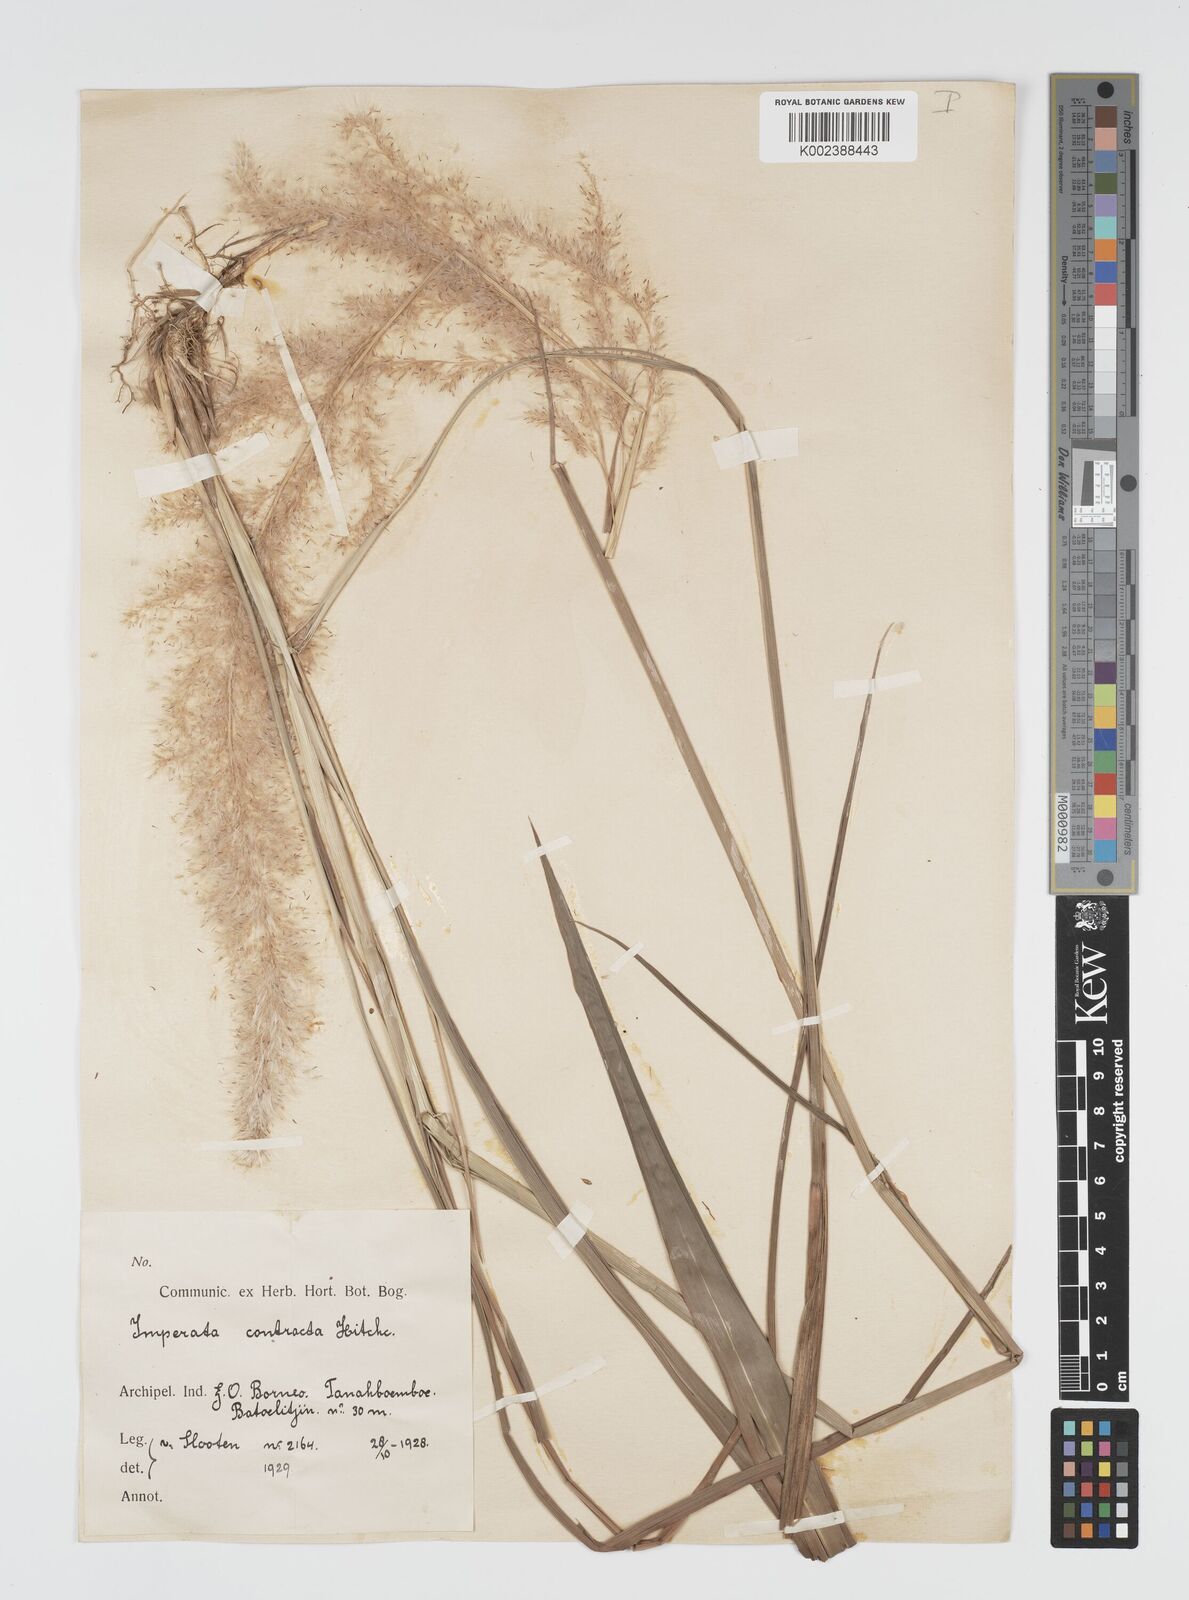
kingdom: Plantae
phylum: Tracheophyta
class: Liliopsida
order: Poales
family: Poaceae
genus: Imperata
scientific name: Imperata conferta
